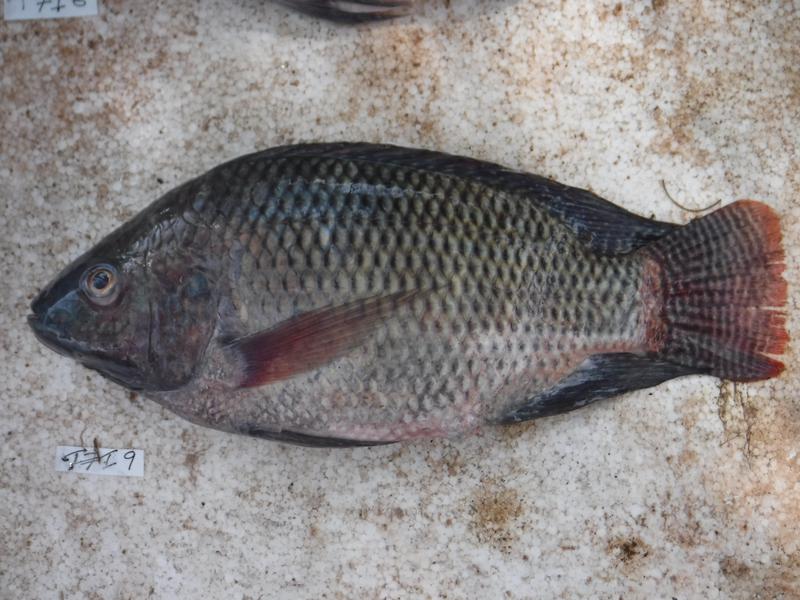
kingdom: Animalia
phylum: Chordata
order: Perciformes
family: Cichlidae
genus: Oreochromis
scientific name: Oreochromis niloticus
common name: Nile tilapia
